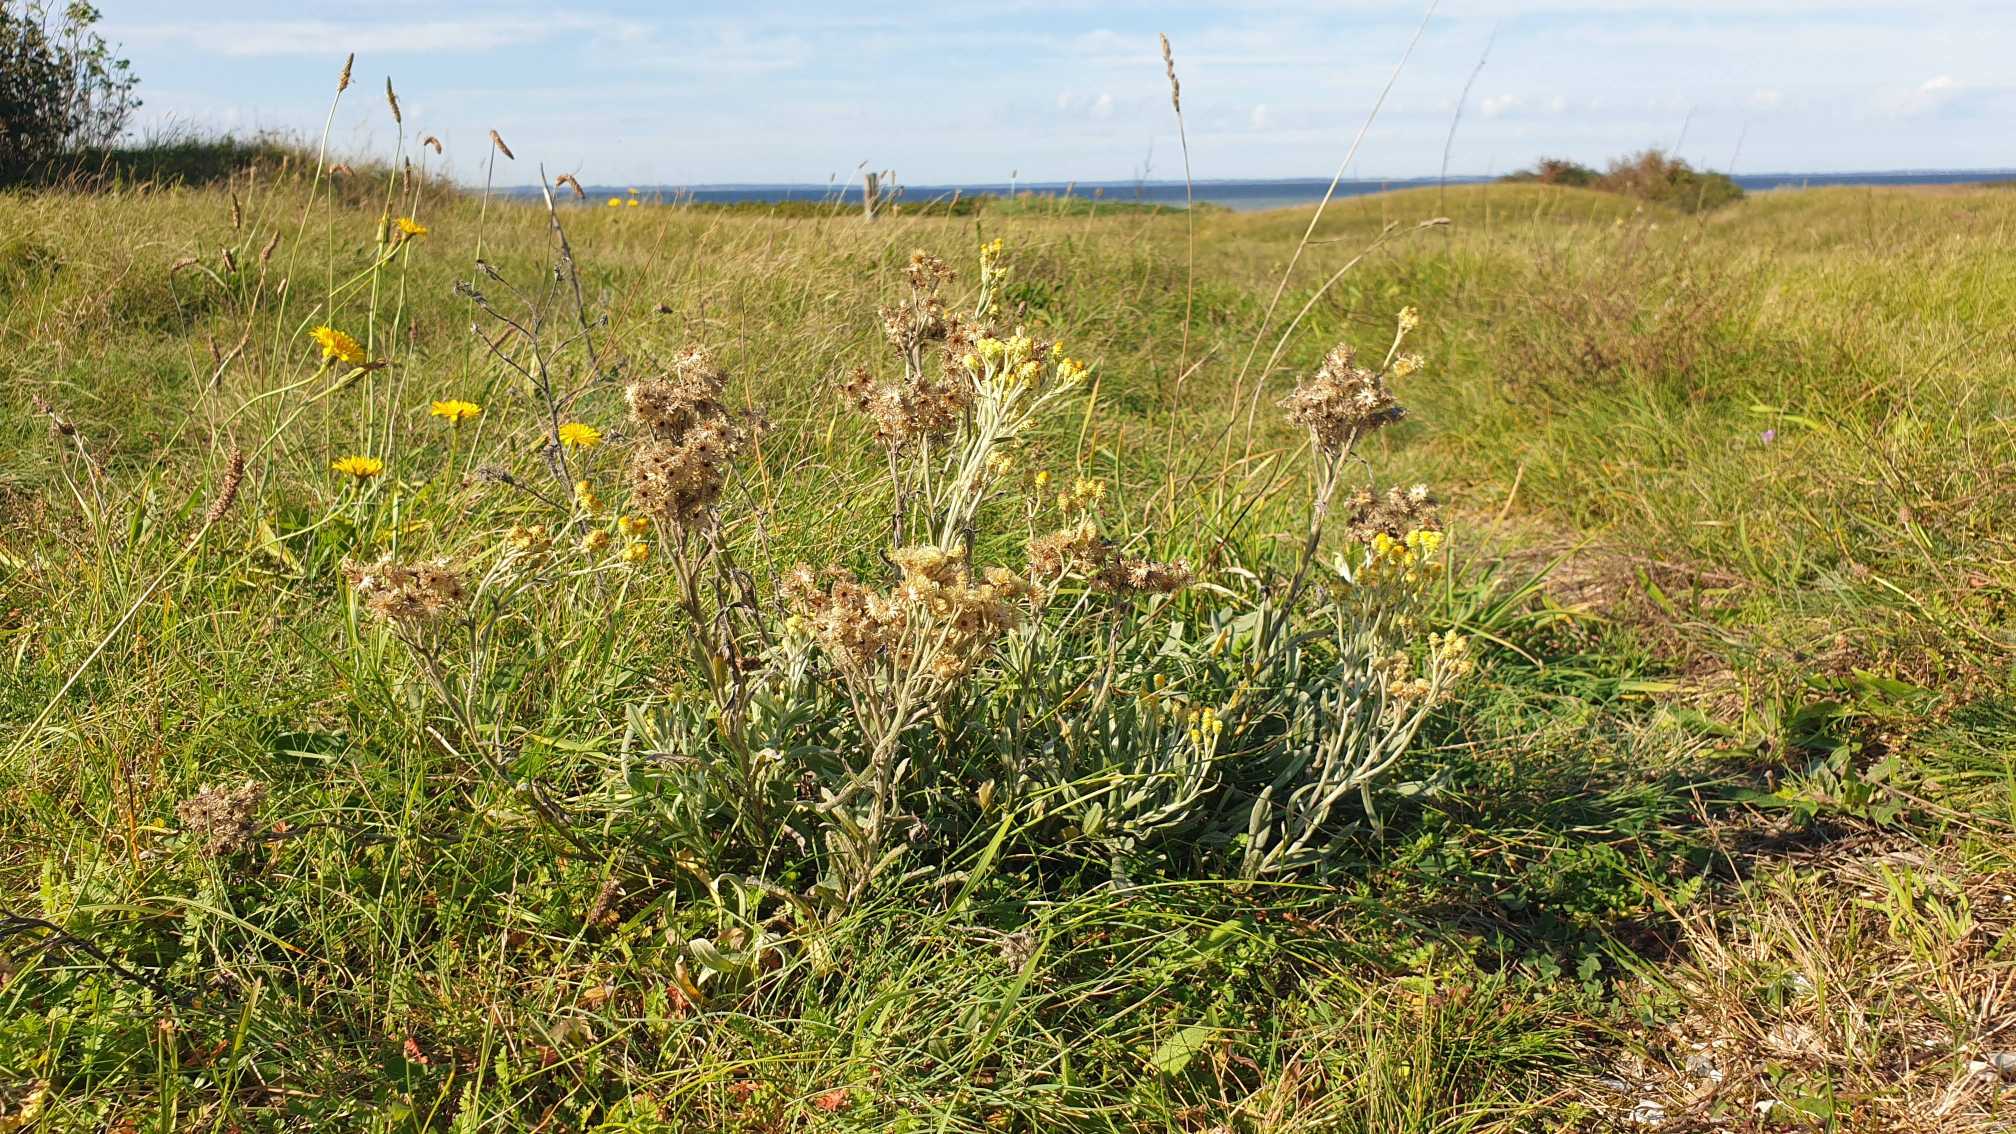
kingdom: Plantae
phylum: Tracheophyta
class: Magnoliopsida
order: Asterales
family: Asteraceae
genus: Helichrysum
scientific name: Helichrysum arenarium
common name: Gul evighedsblomst
